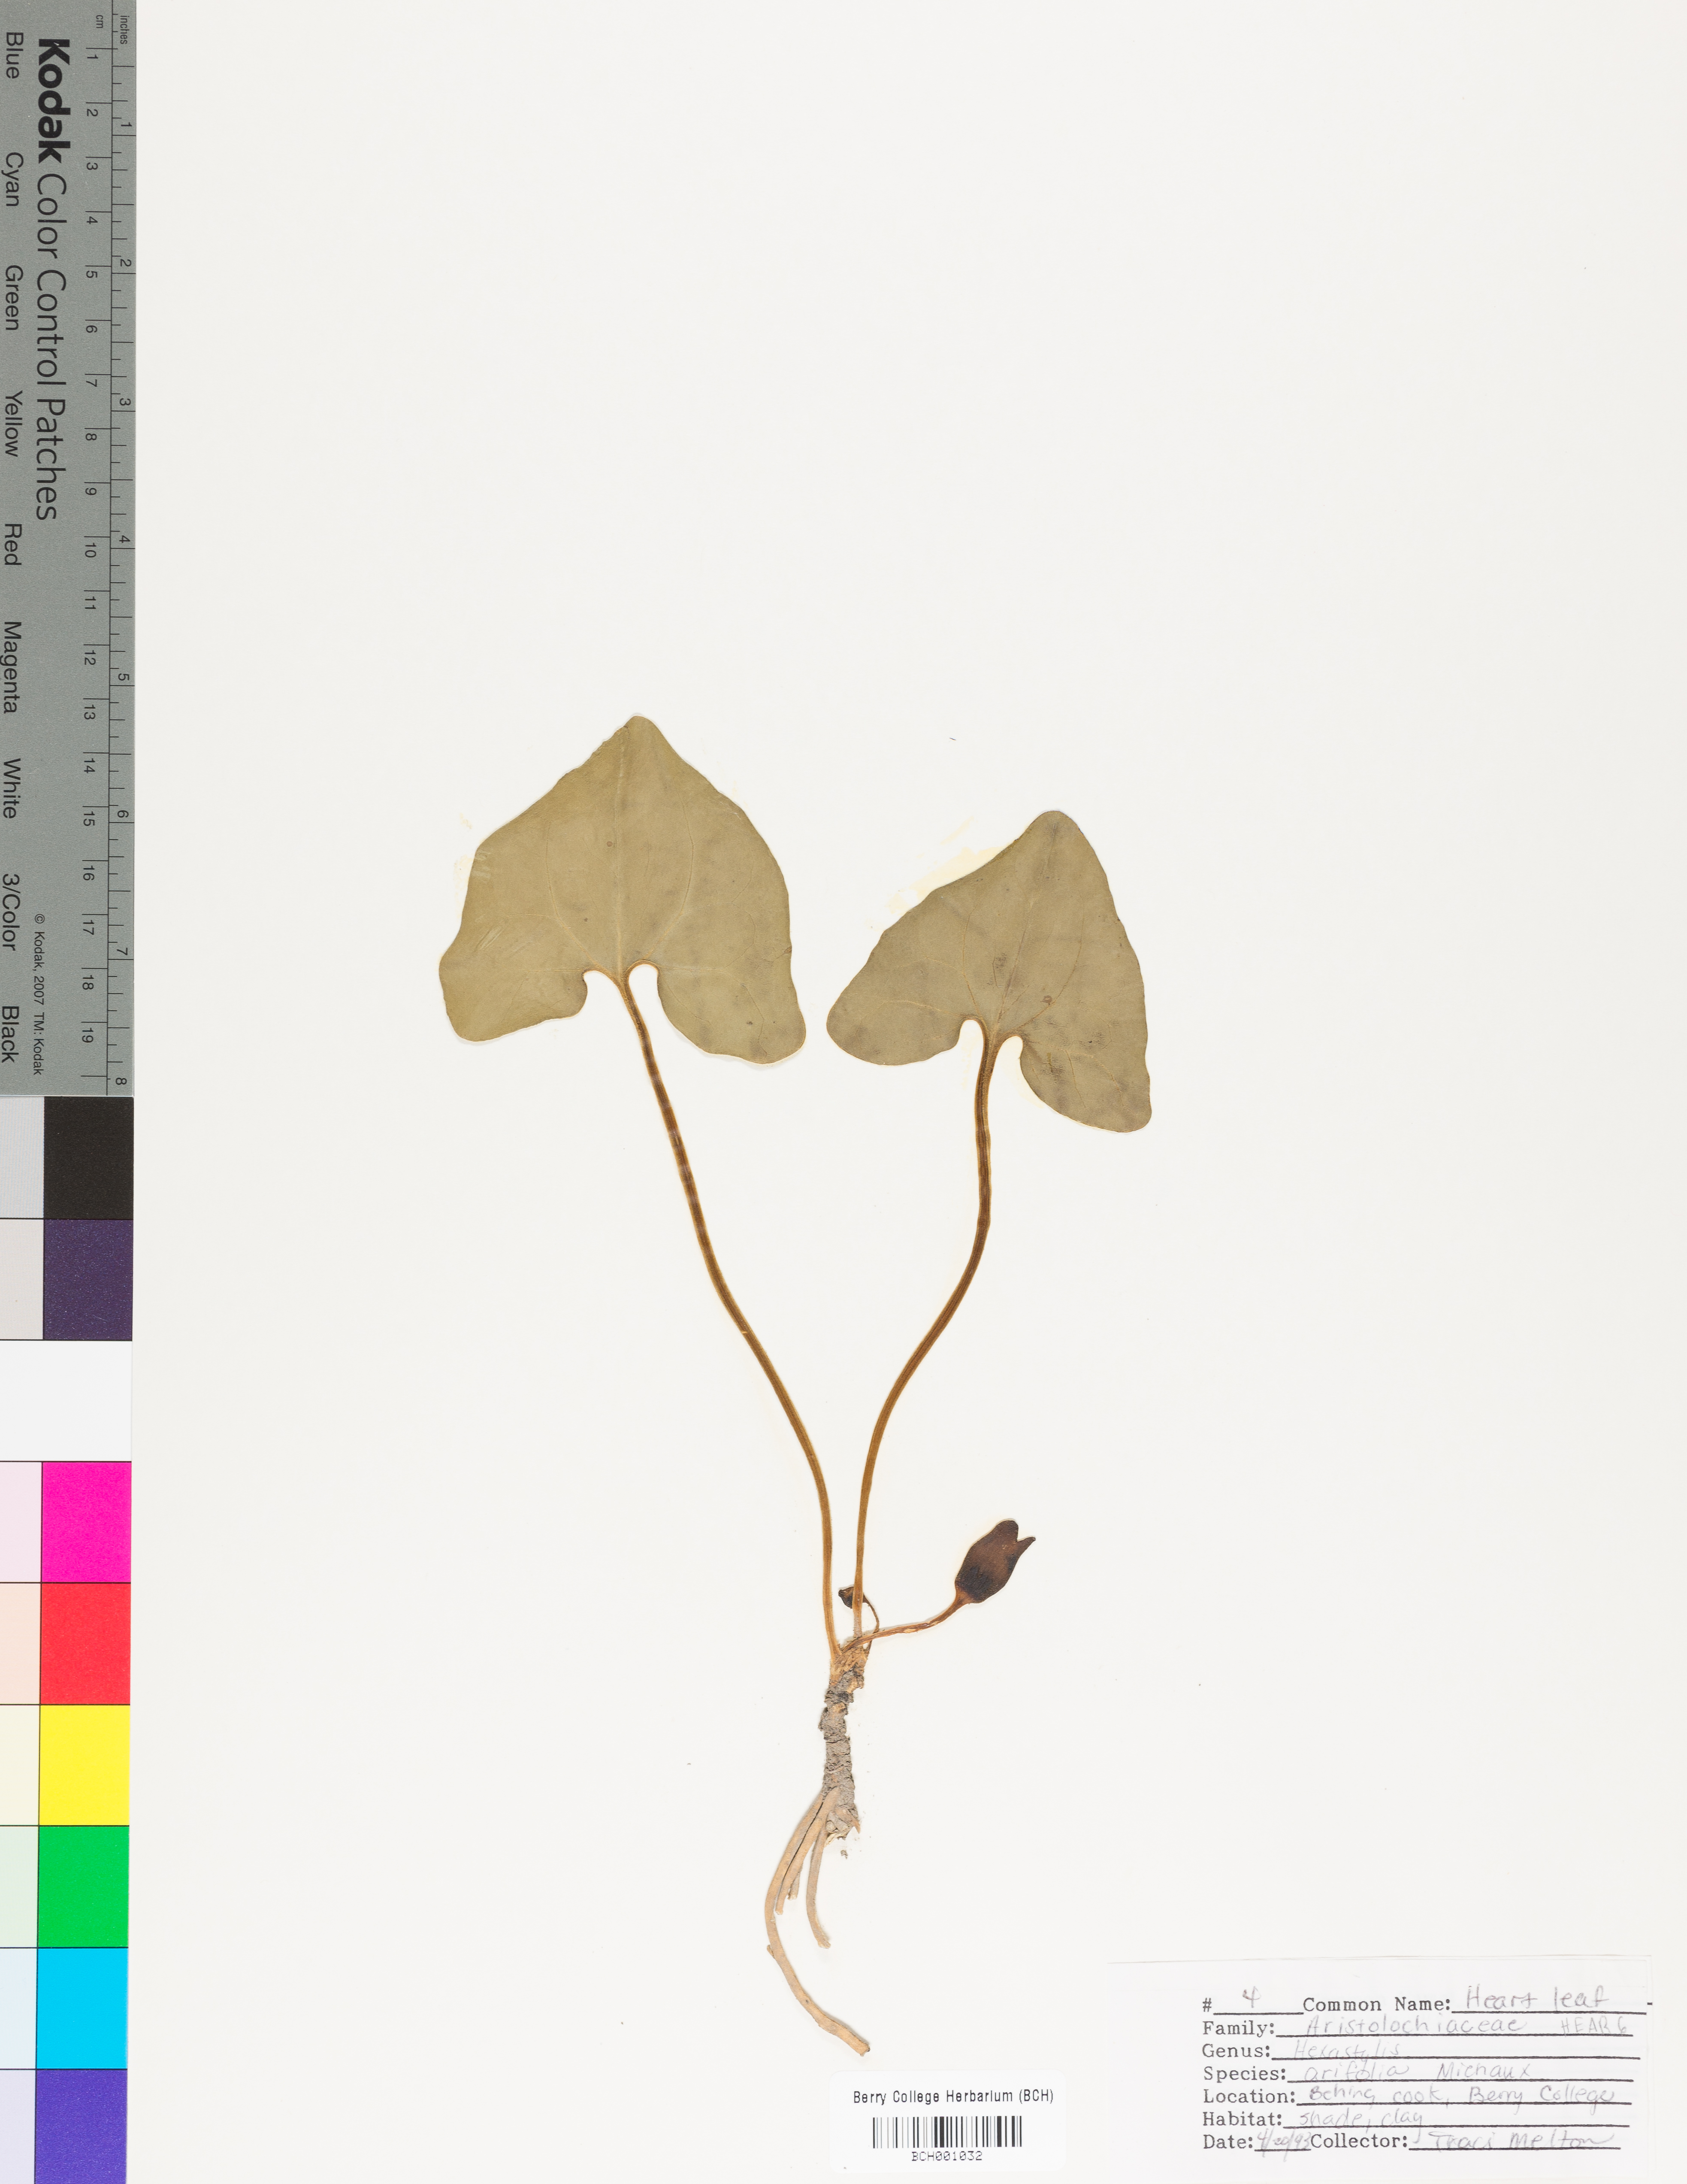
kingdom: Plantae
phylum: Tracheophyta
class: Magnoliopsida
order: Piperales
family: Aristolochiaceae
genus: Hexastylis
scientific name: Hexastylis arifolia
